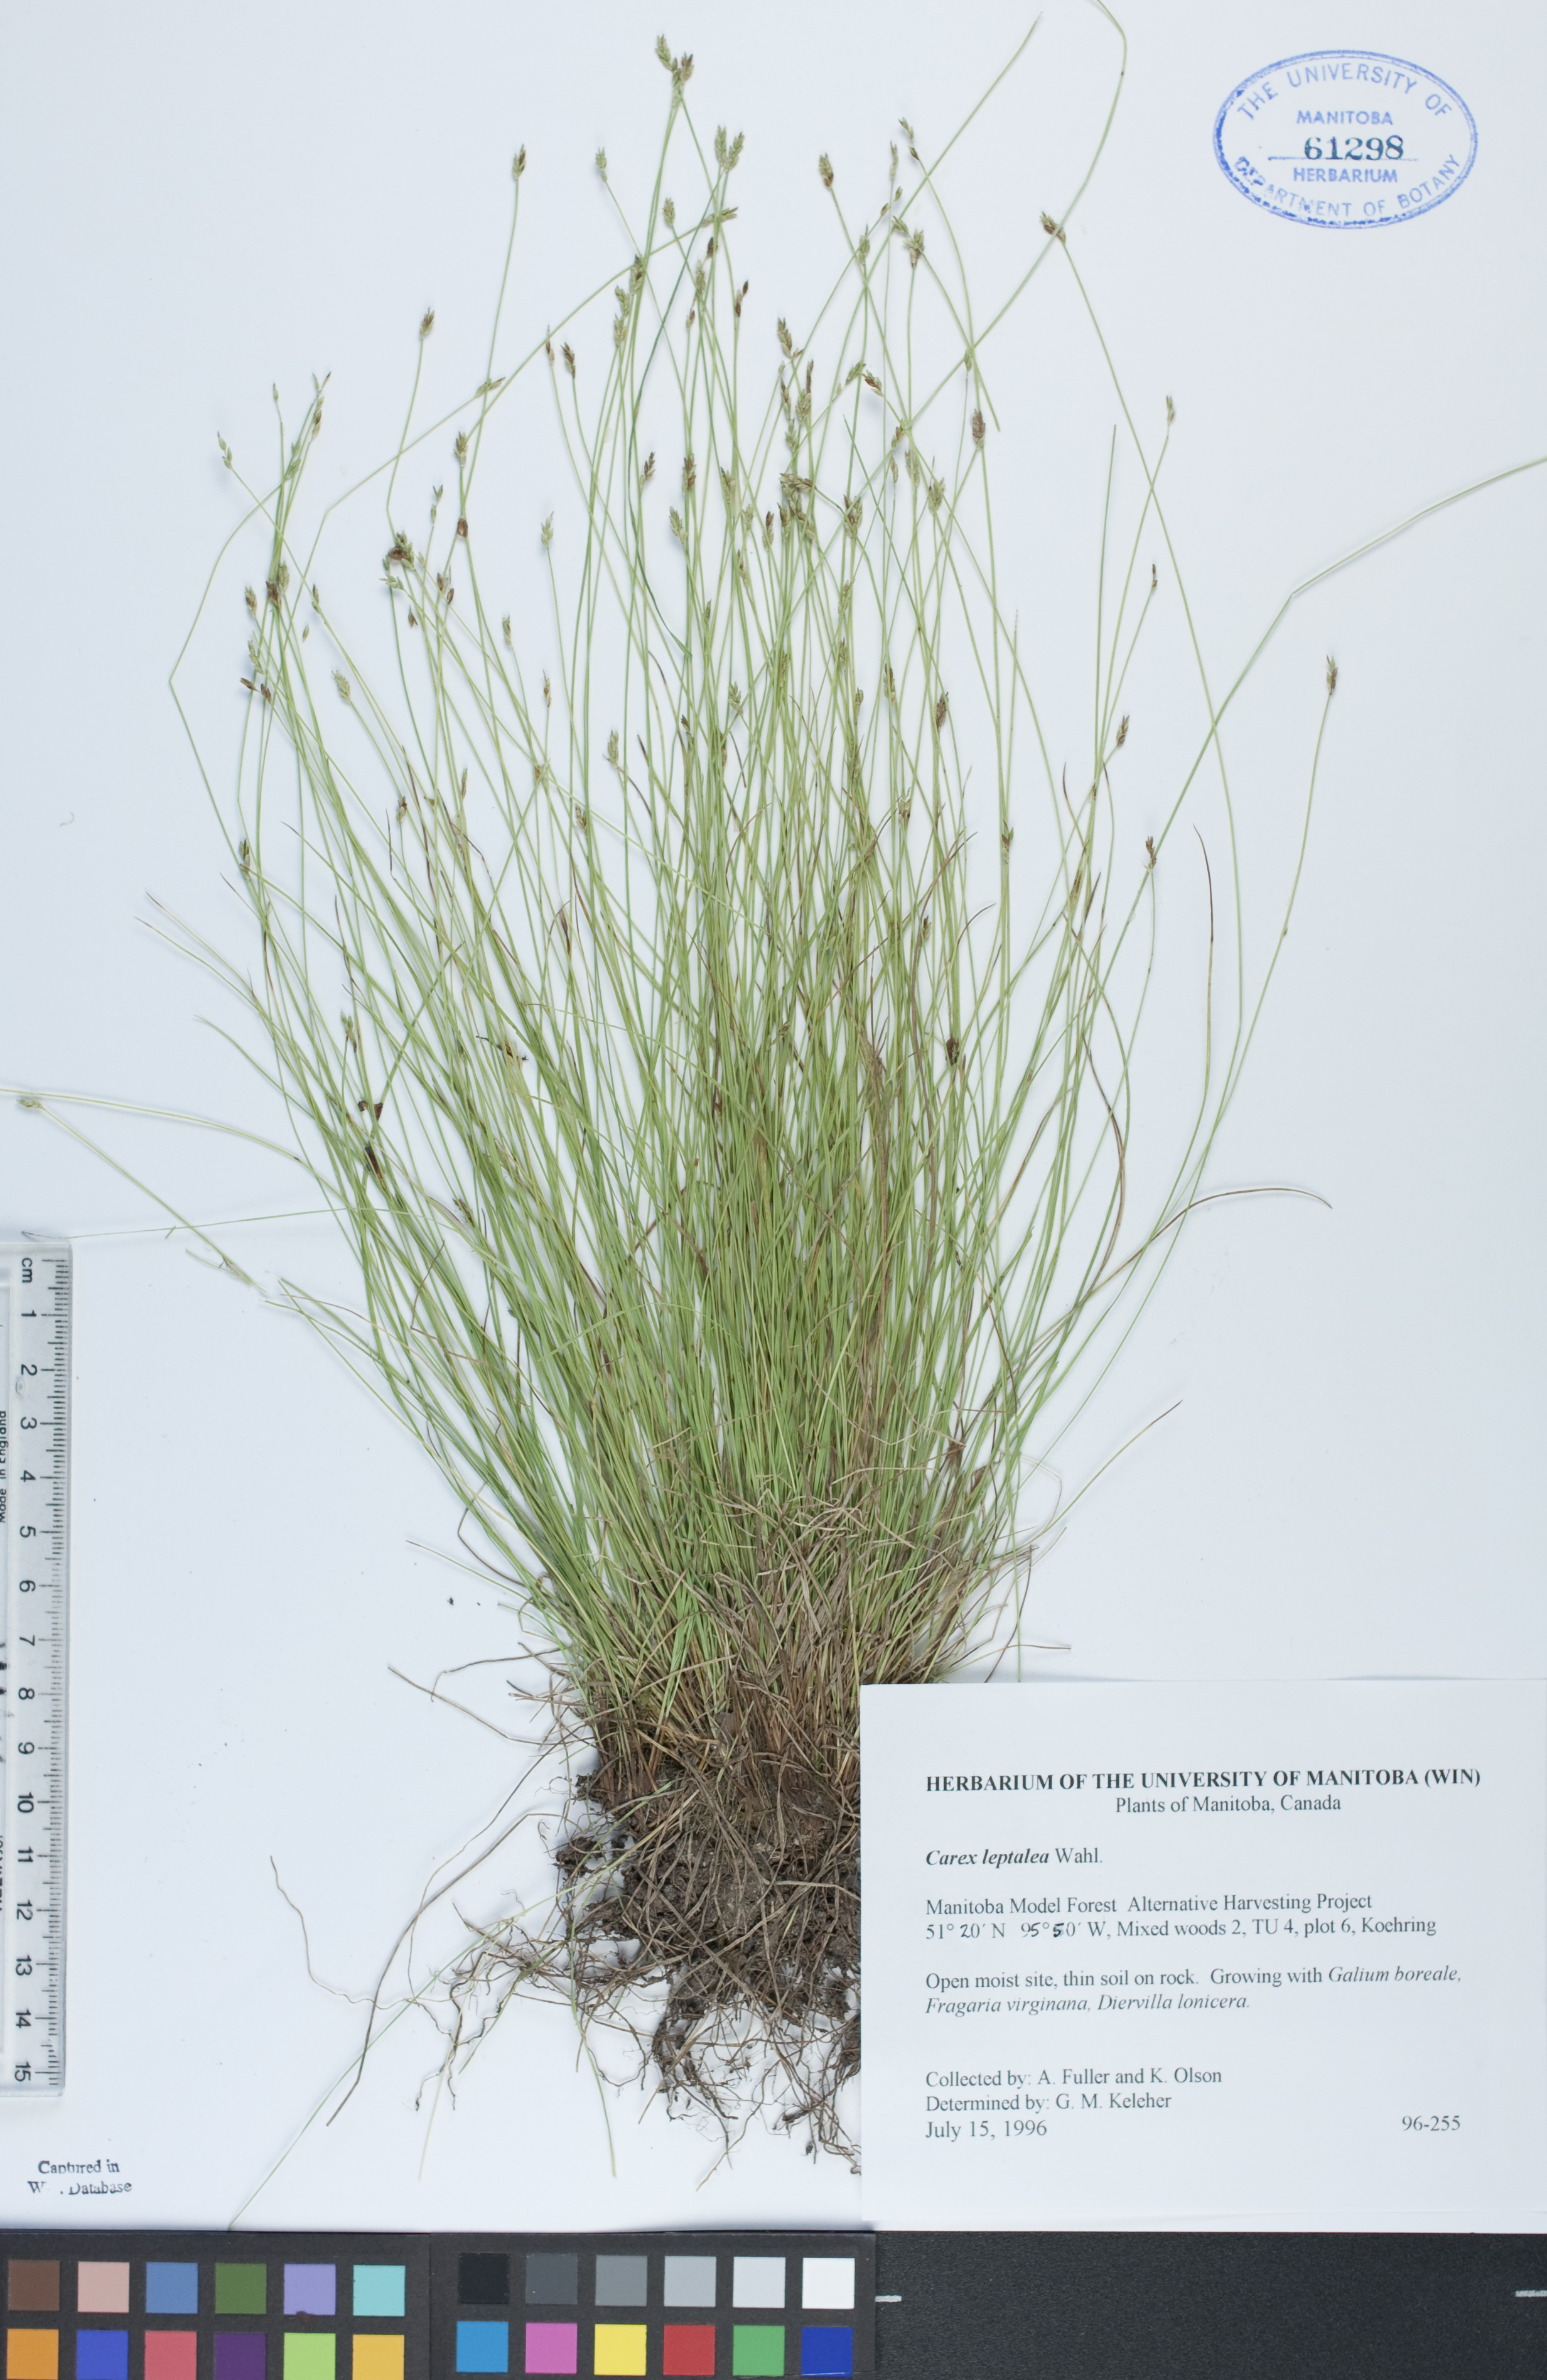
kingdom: Plantae
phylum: Tracheophyta
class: Liliopsida
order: Poales
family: Cyperaceae
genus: Carex
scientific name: Carex leptalea
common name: Bristly-stalked sedge
